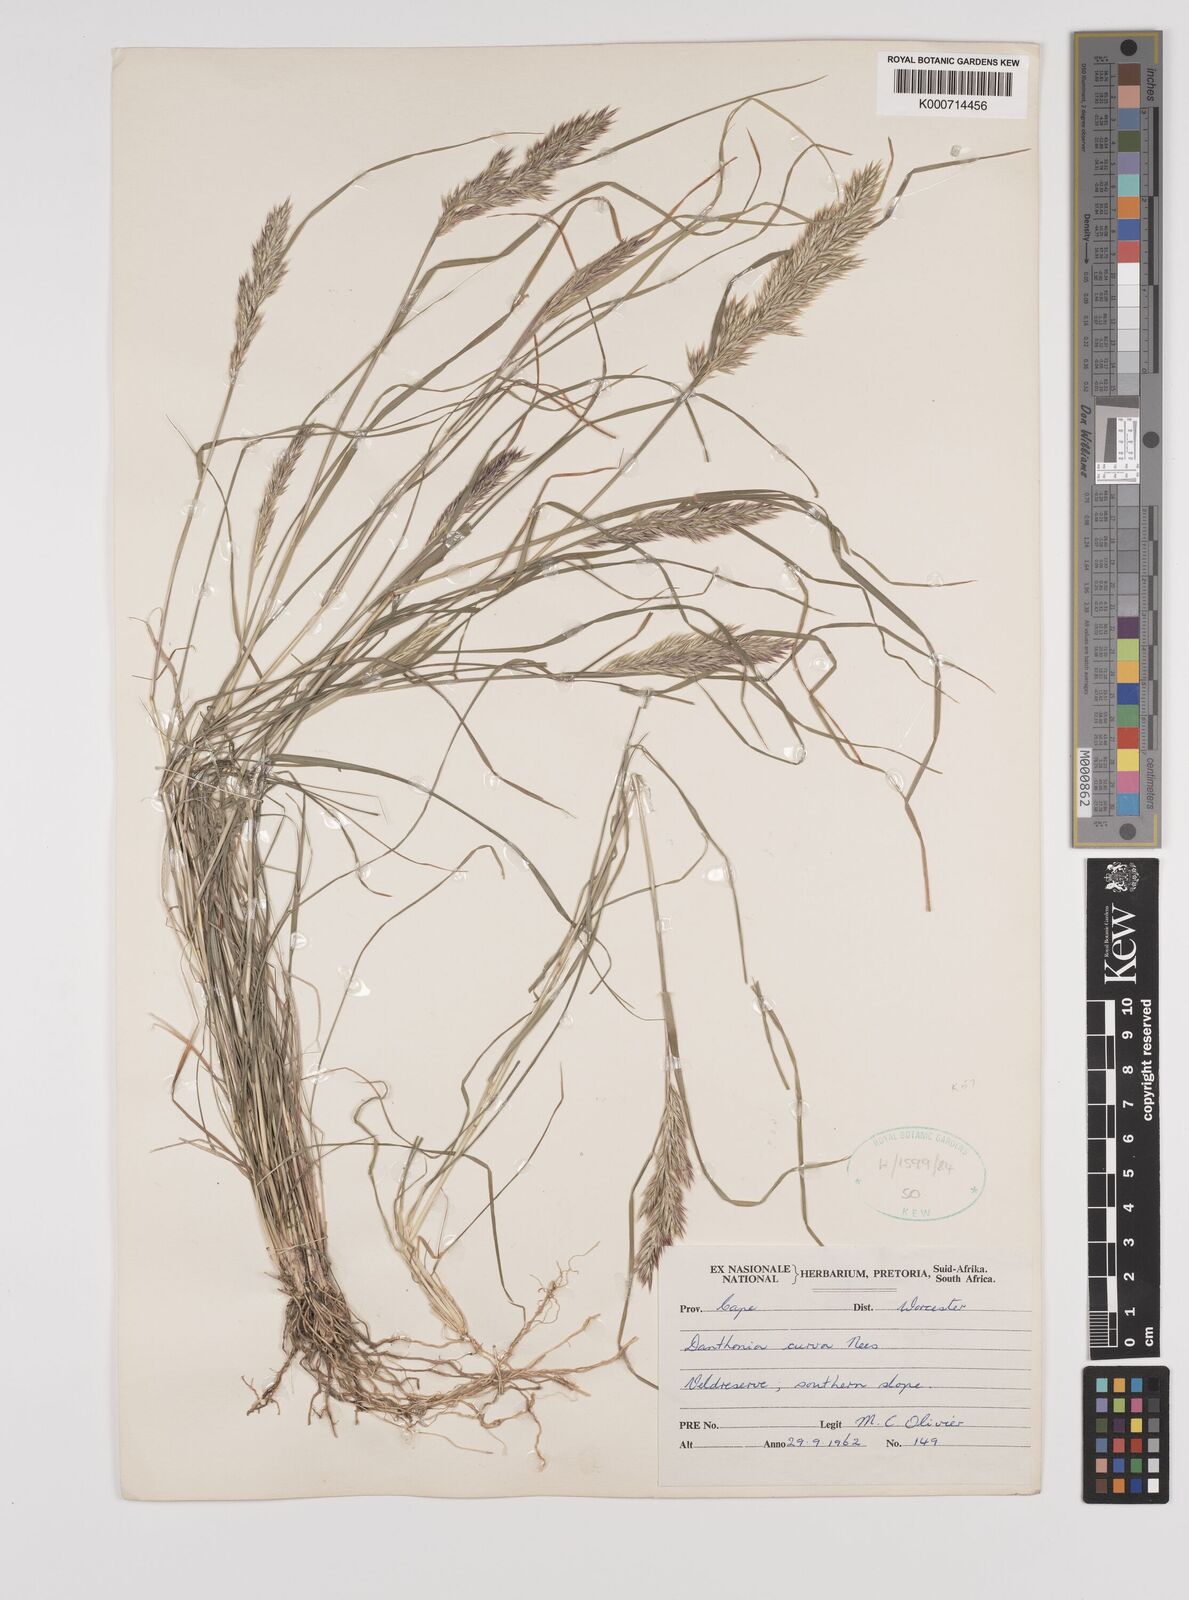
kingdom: Plantae
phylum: Tracheophyta
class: Liliopsida
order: Poales
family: Poaceae
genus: Rytidosperma
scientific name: Rytidosperma
